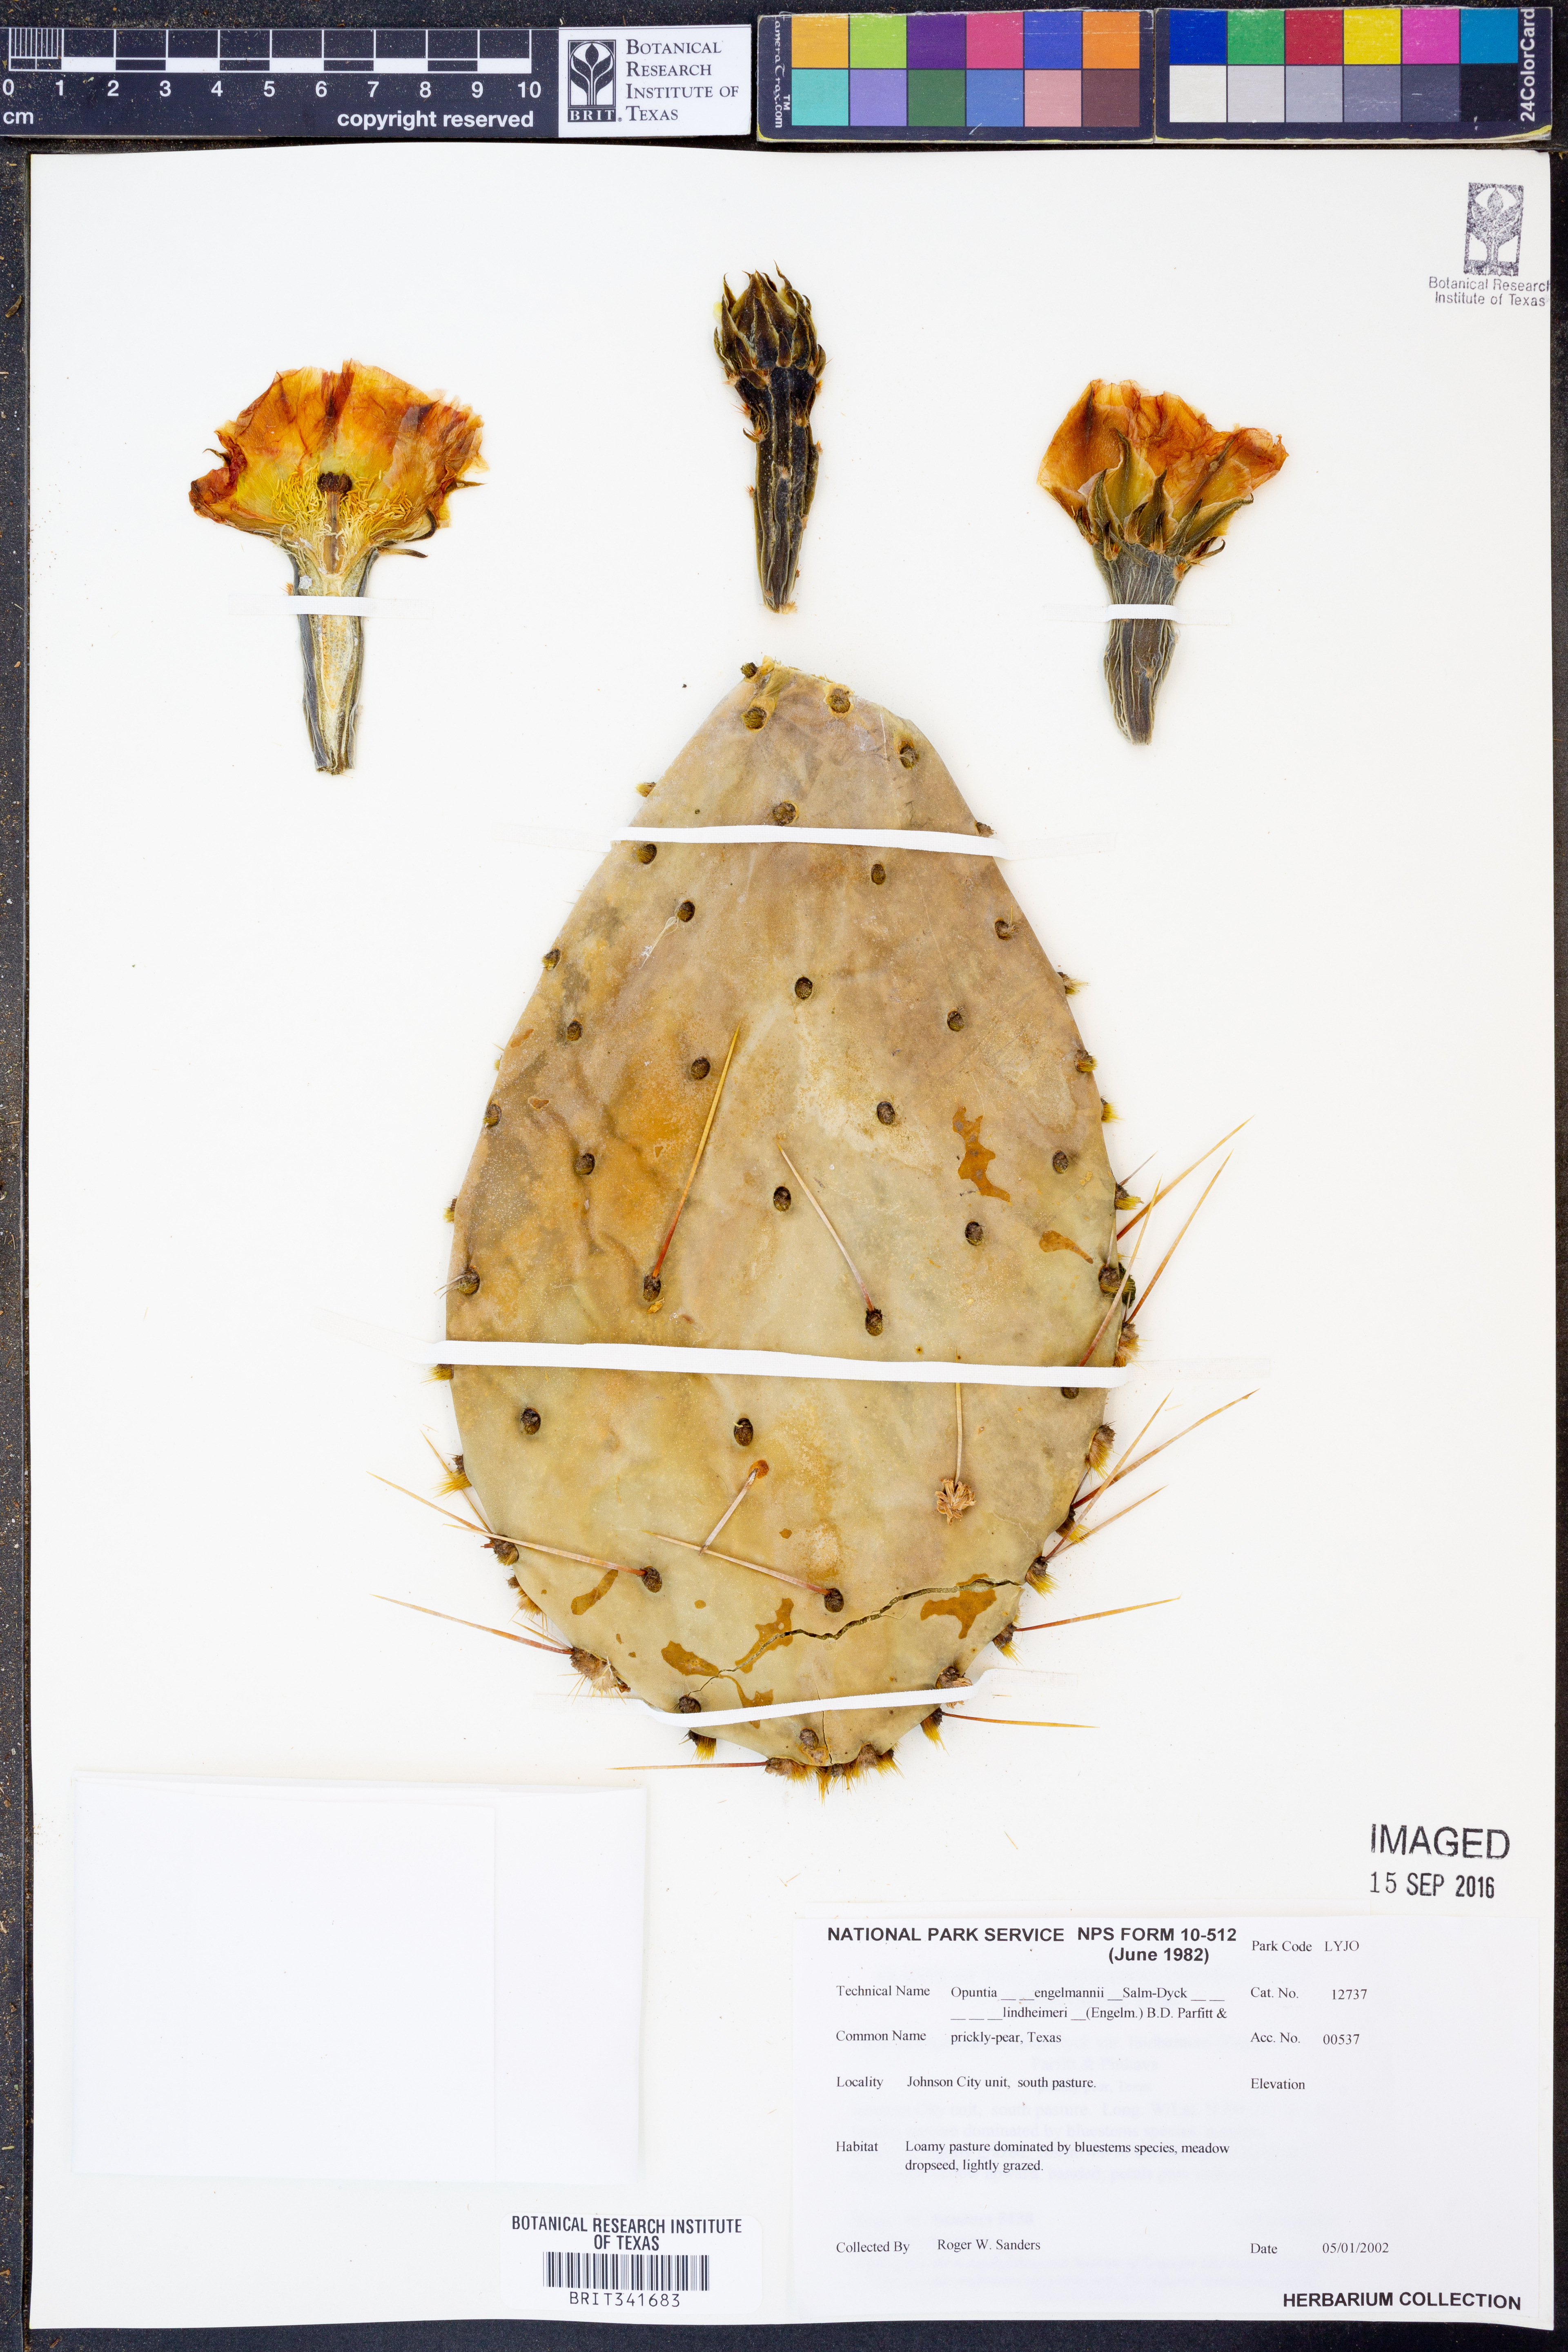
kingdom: Plantae
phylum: Tracheophyta
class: Magnoliopsida
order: Caryophyllales
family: Cactaceae
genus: Opuntia
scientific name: Opuntia engelmannii
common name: Cactus-apple
